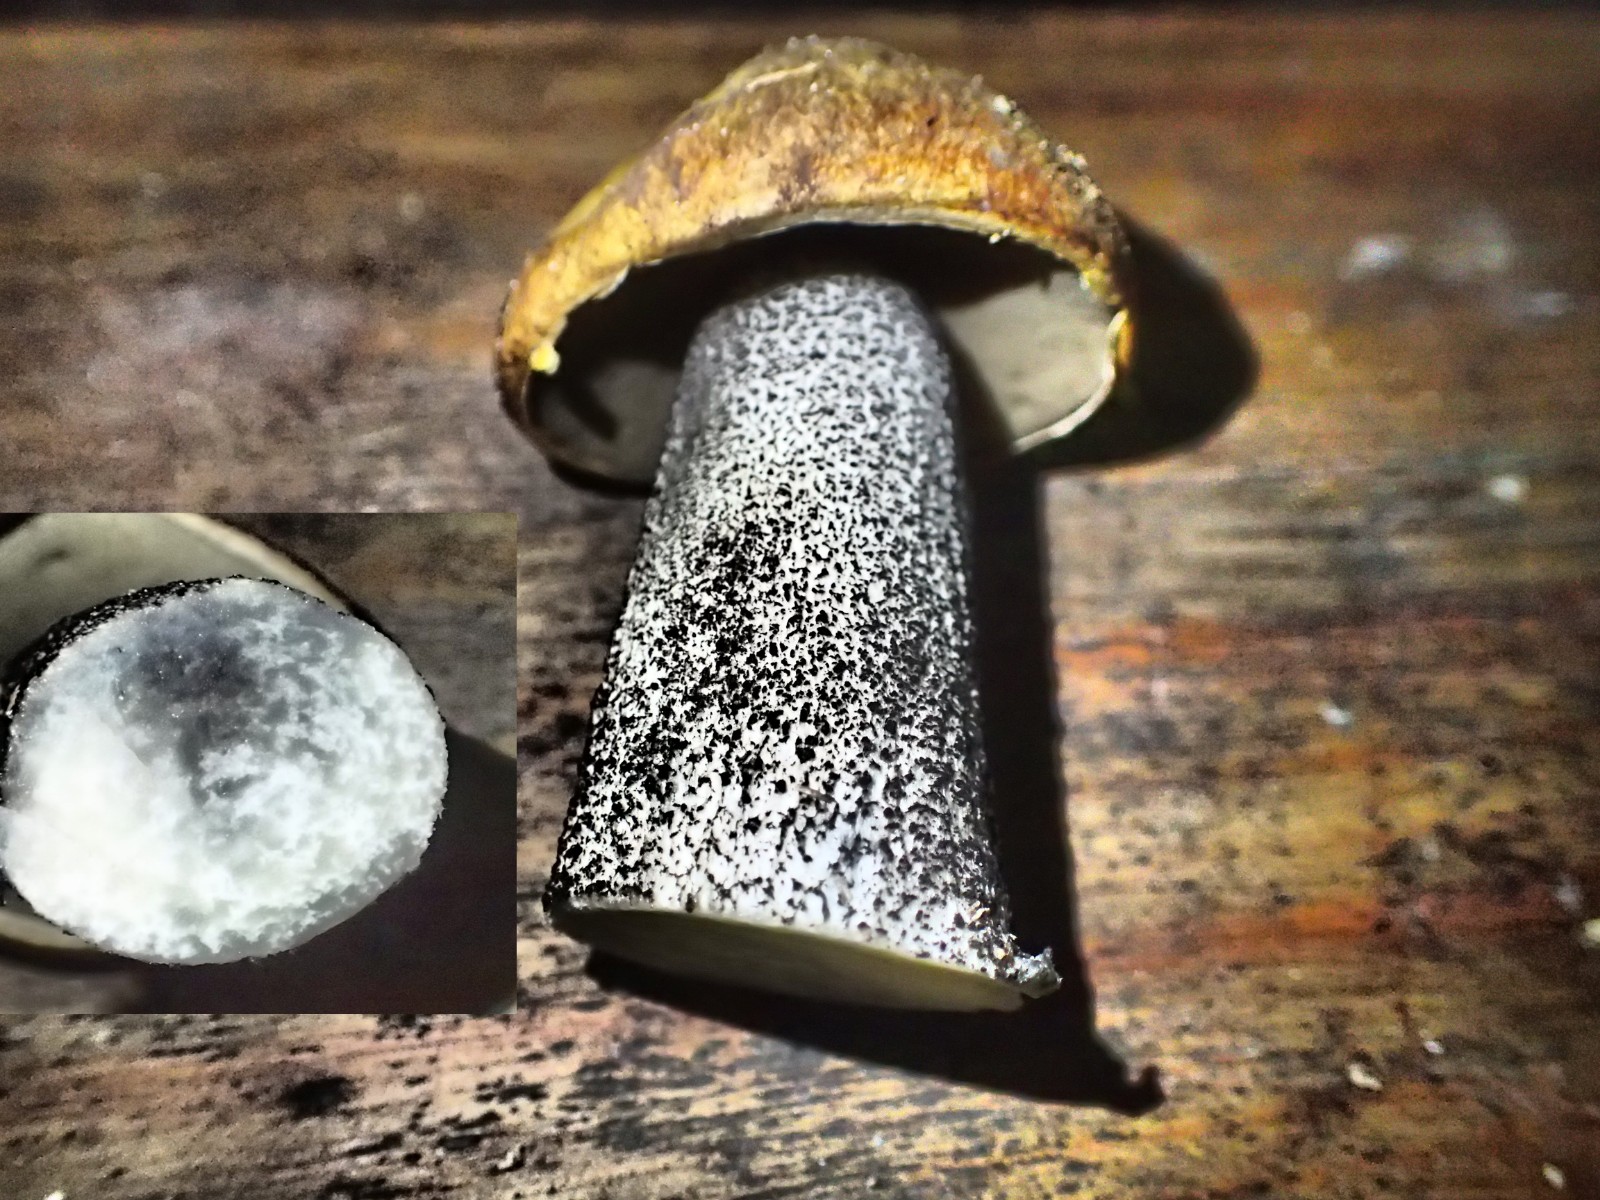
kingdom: Fungi
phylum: Basidiomycota
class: Agaricomycetes
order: Boletales
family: Boletaceae
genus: Leccinum
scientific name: Leccinum
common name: skælrørhat
